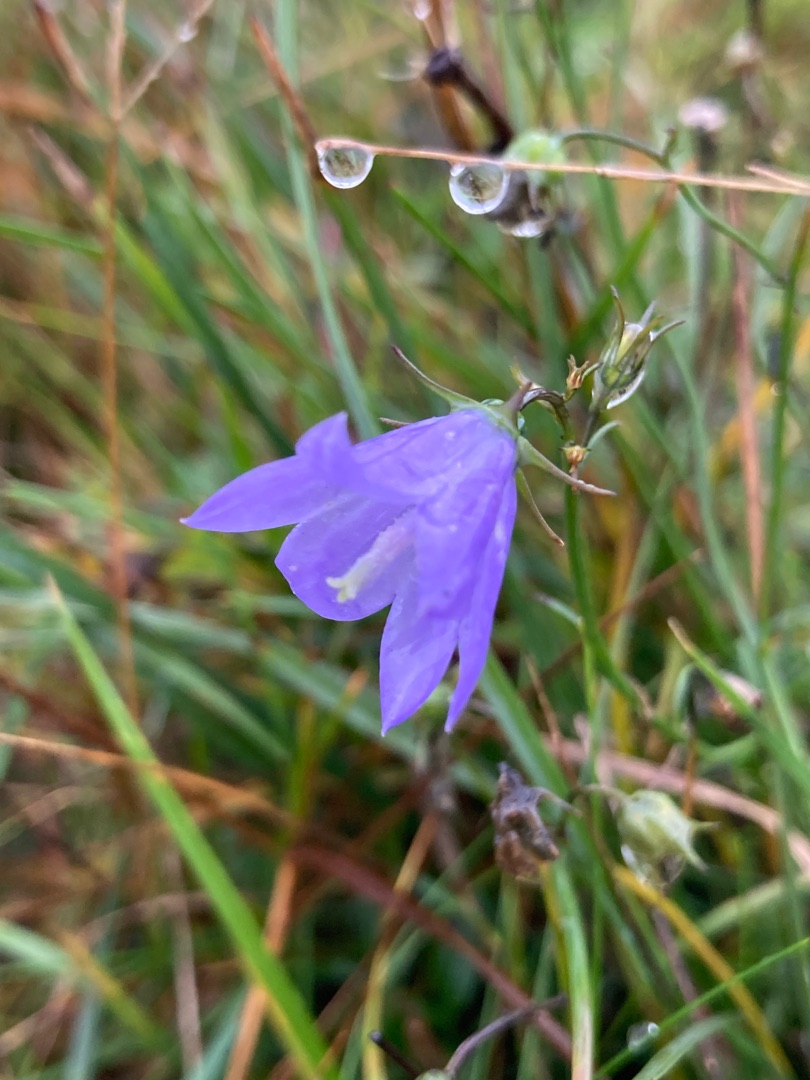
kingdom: Plantae
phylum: Tracheophyta
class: Magnoliopsida
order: Asterales
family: Campanulaceae
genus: Campanula
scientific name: Campanula rotundifolia
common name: Liden klokke
